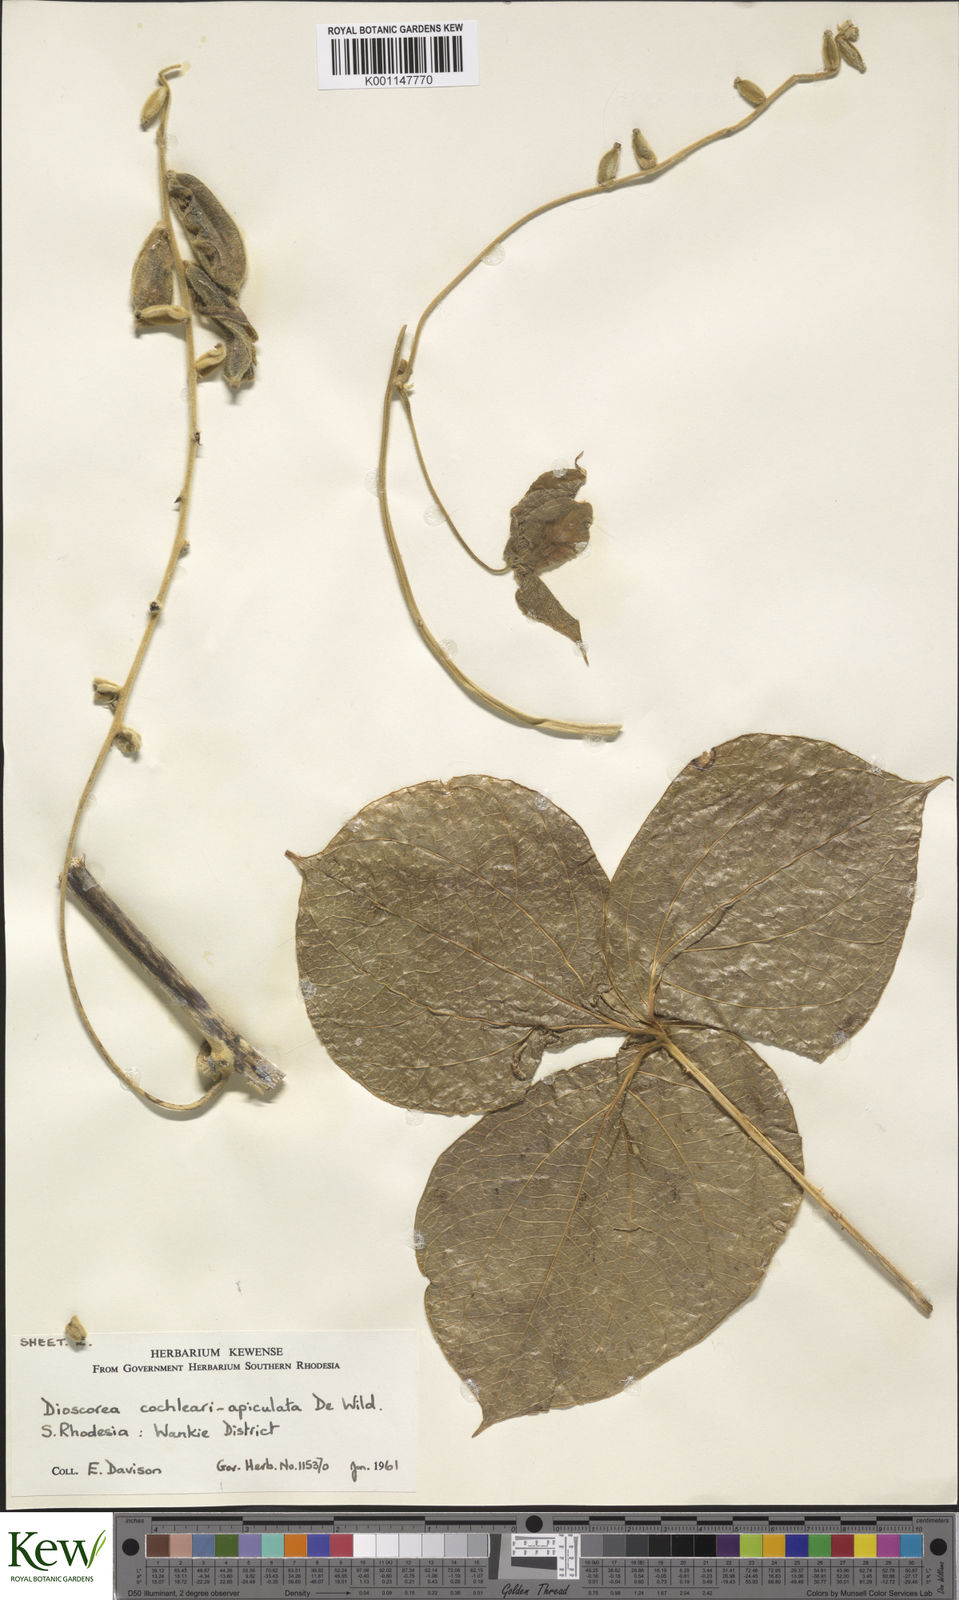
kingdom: Plantae
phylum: Tracheophyta
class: Liliopsida
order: Dioscoreales
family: Dioscoreaceae
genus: Dioscorea
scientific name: Dioscorea cochleariapiculata
